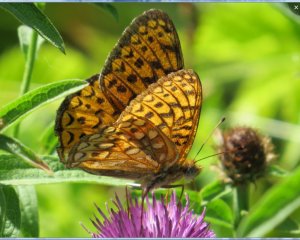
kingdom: Animalia
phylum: Arthropoda
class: Insecta
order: Lepidoptera
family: Nymphalidae
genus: Speyeria
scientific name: Speyeria atlantis
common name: Atlantis Fritillary
